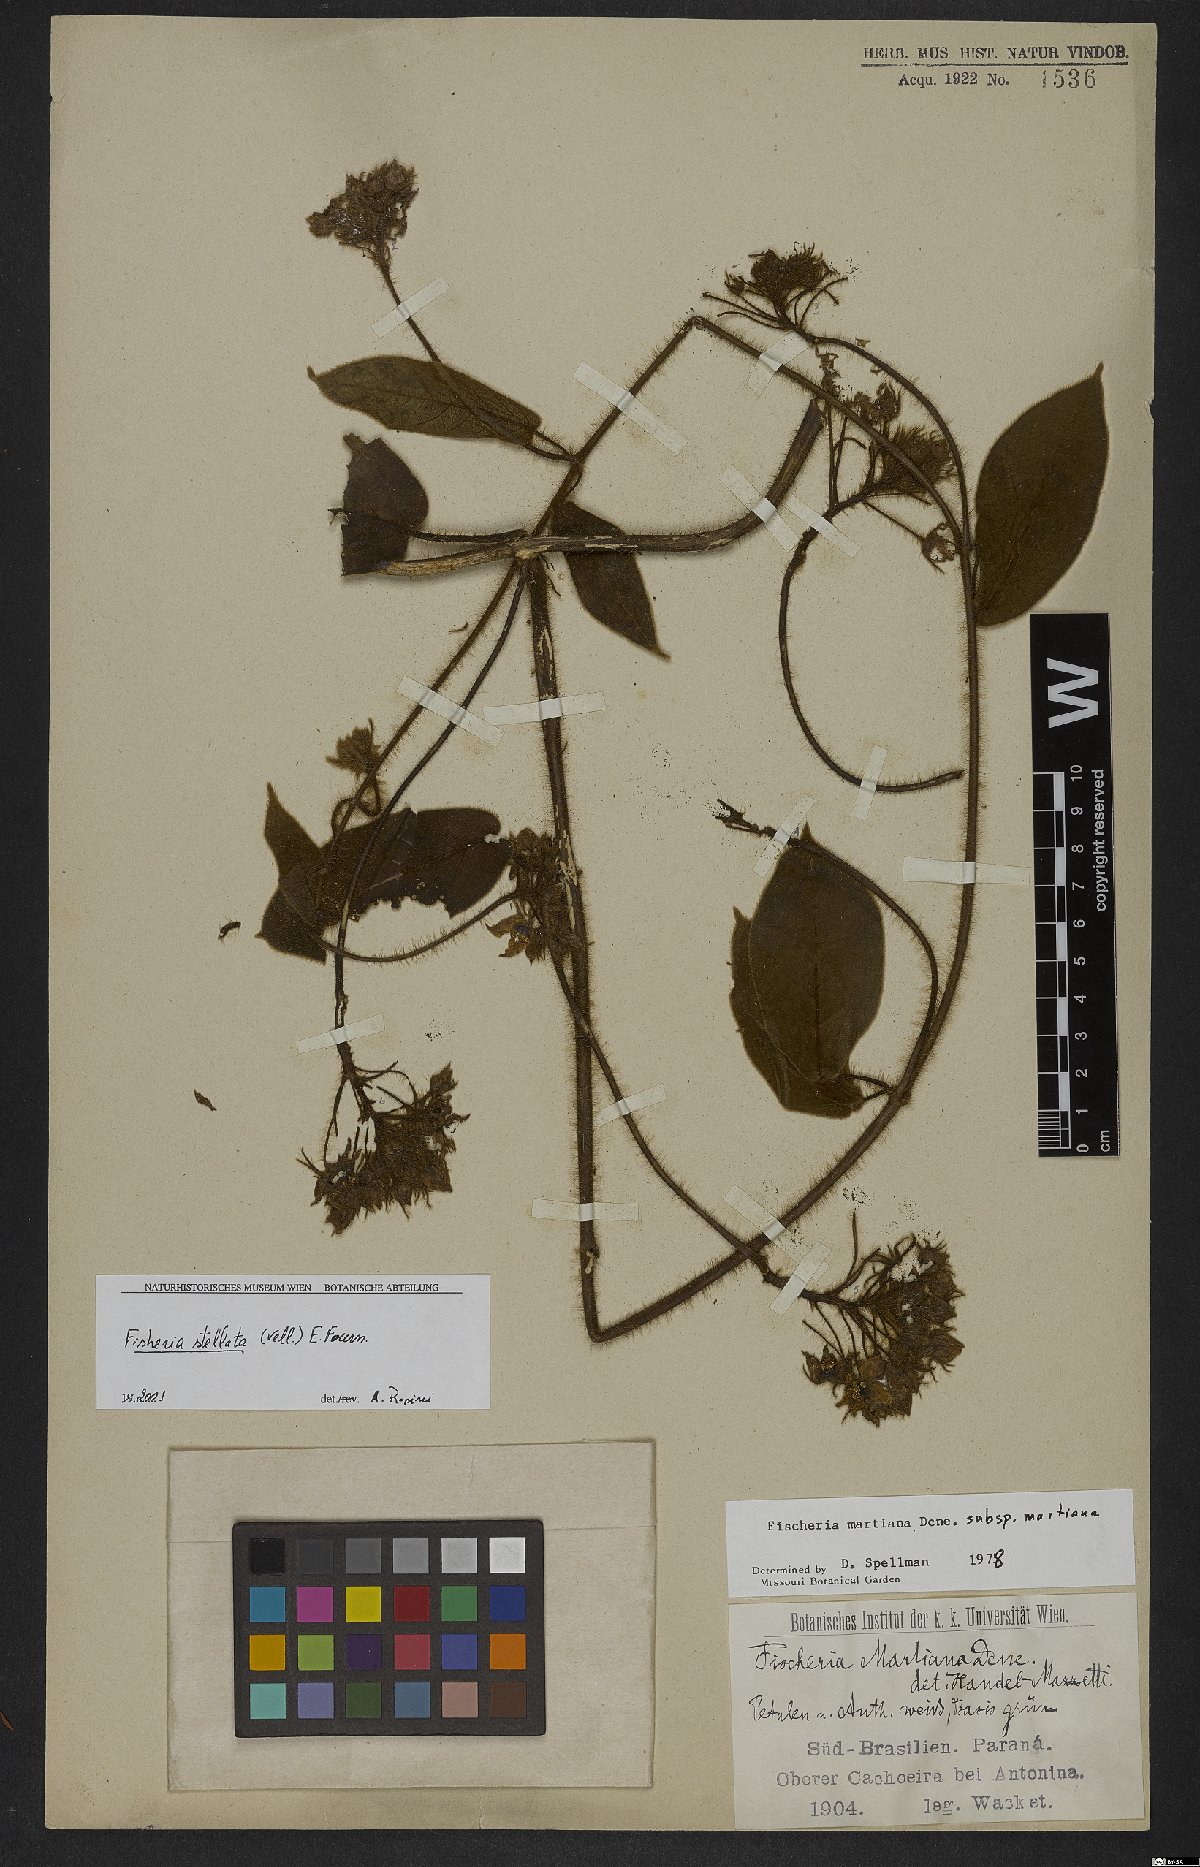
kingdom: Plantae
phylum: Tracheophyta
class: Magnoliopsida
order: Gentianales
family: Apocynaceae
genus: Fischeria
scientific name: Fischeria stellata
